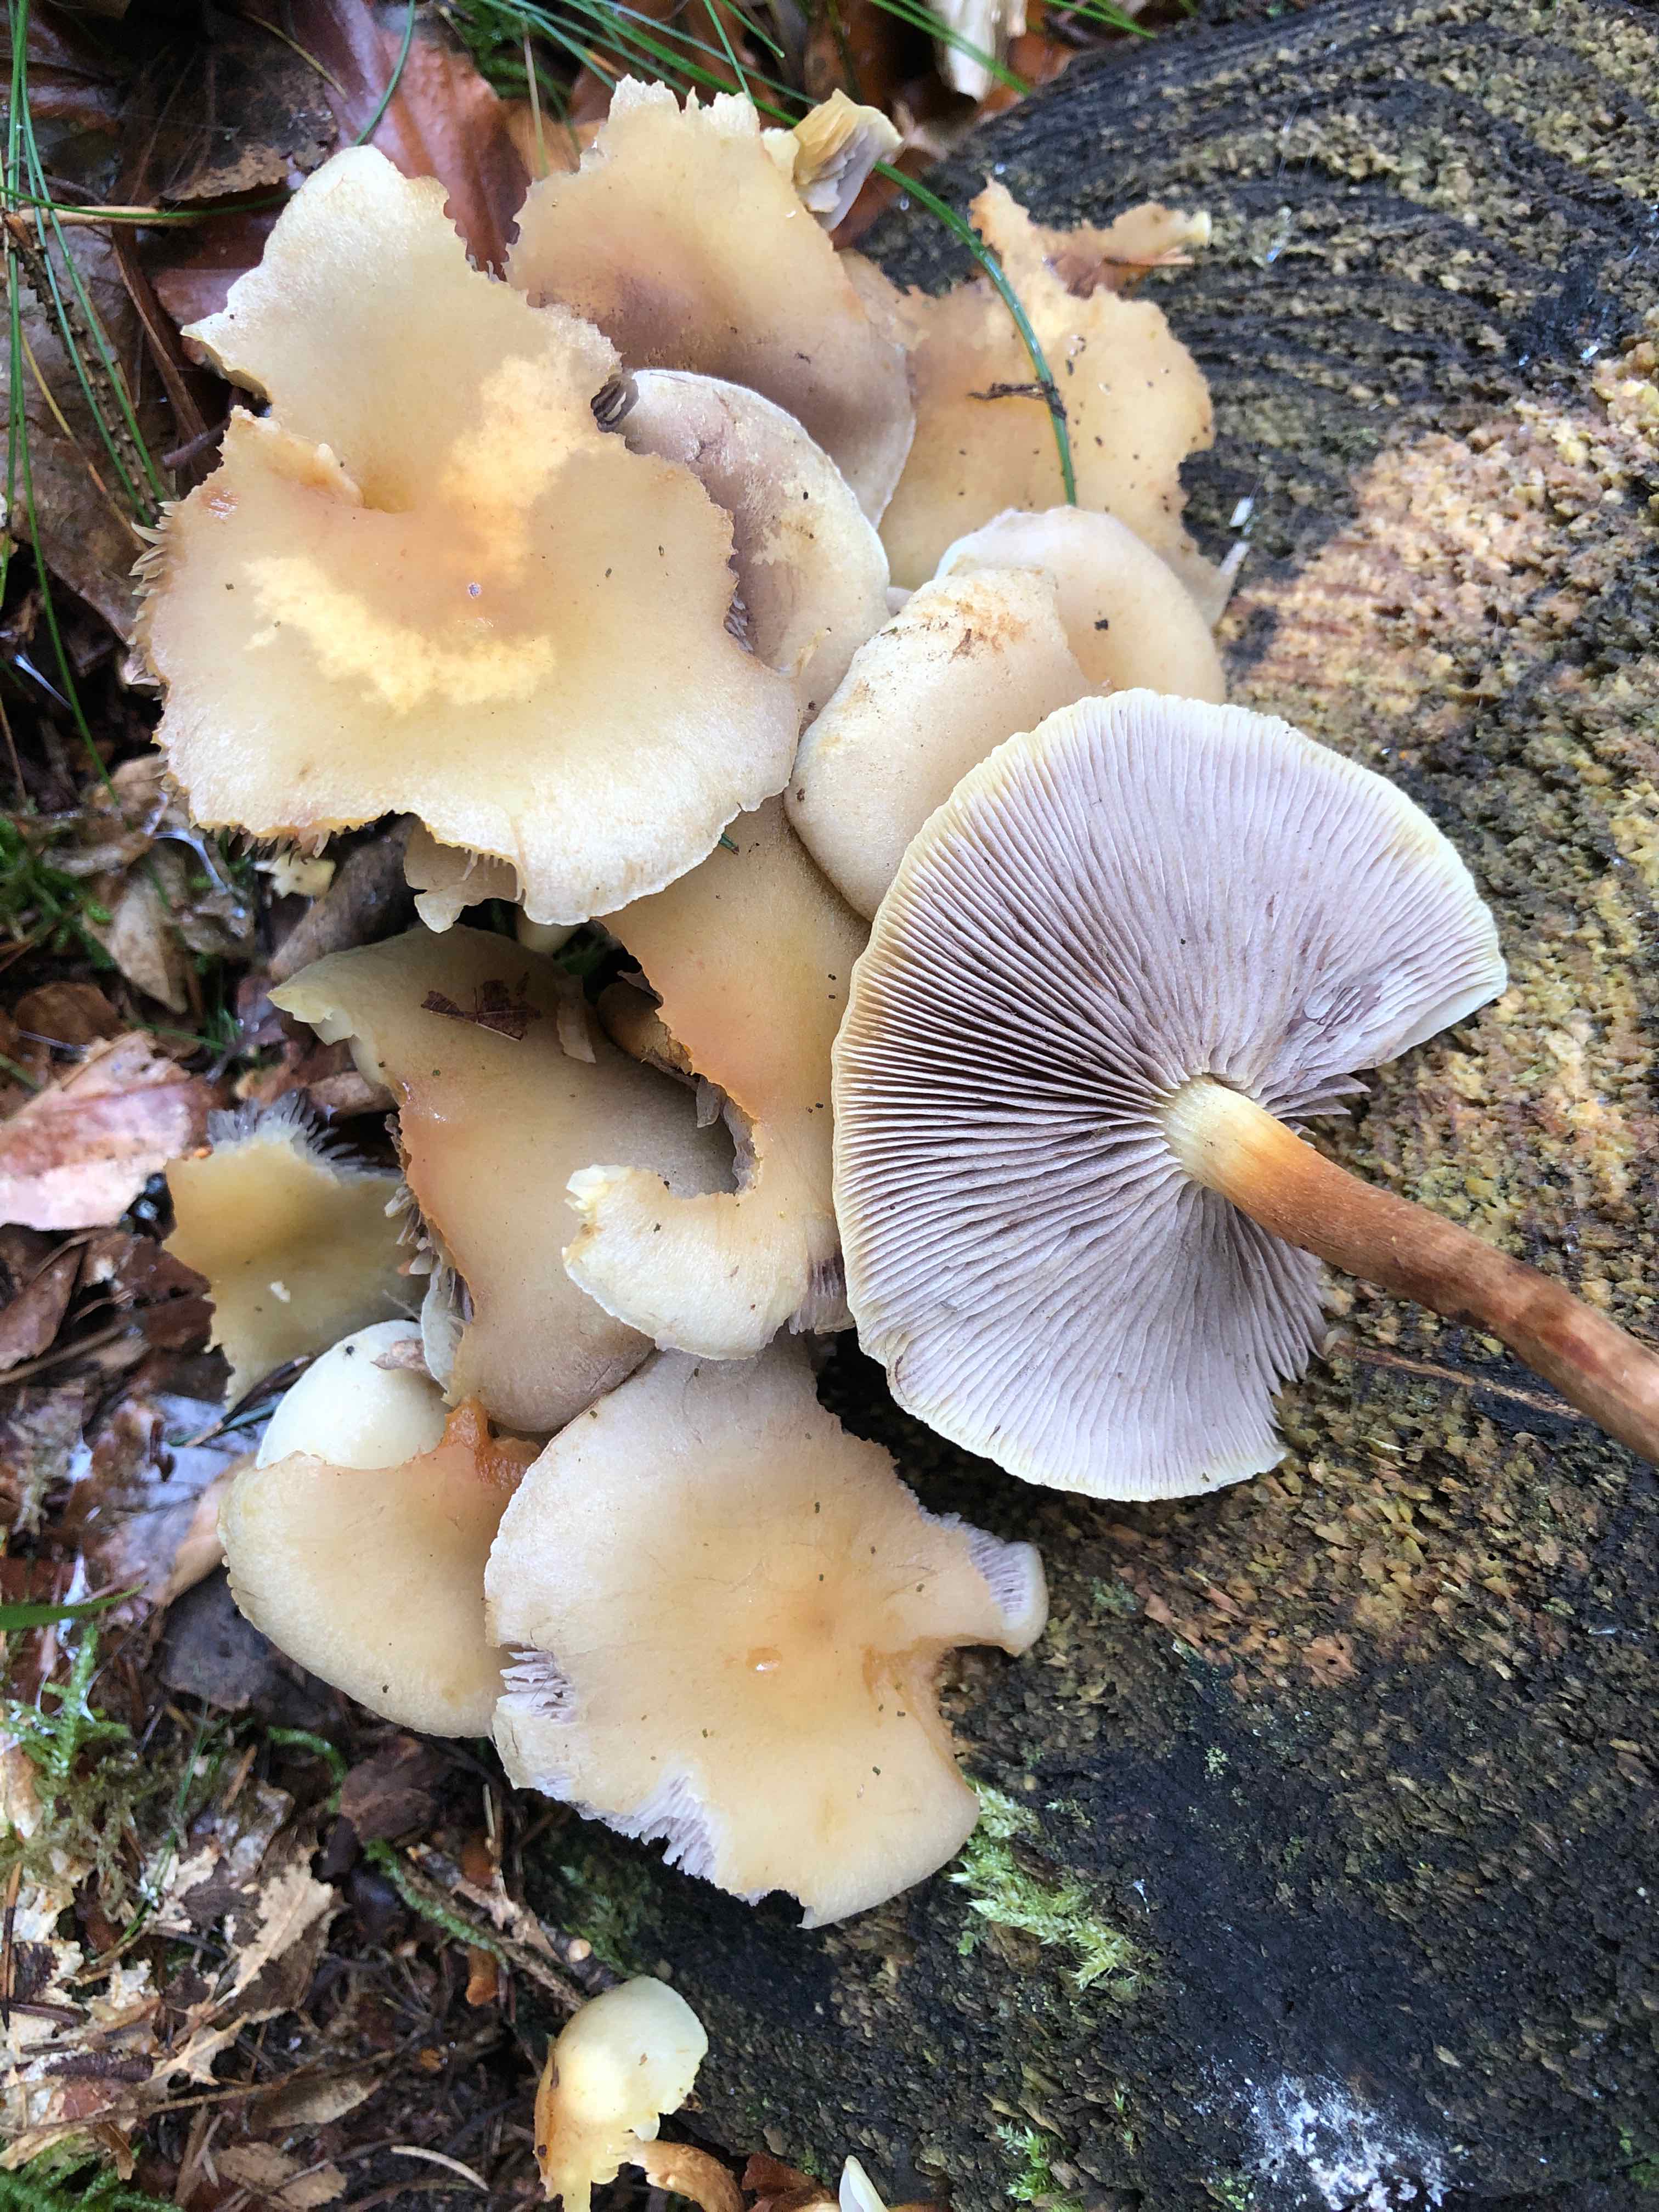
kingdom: Fungi
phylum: Basidiomycota
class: Agaricomycetes
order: Agaricales
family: Strophariaceae
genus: Hypholoma
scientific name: Hypholoma capnoides
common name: gran-svovlhat
